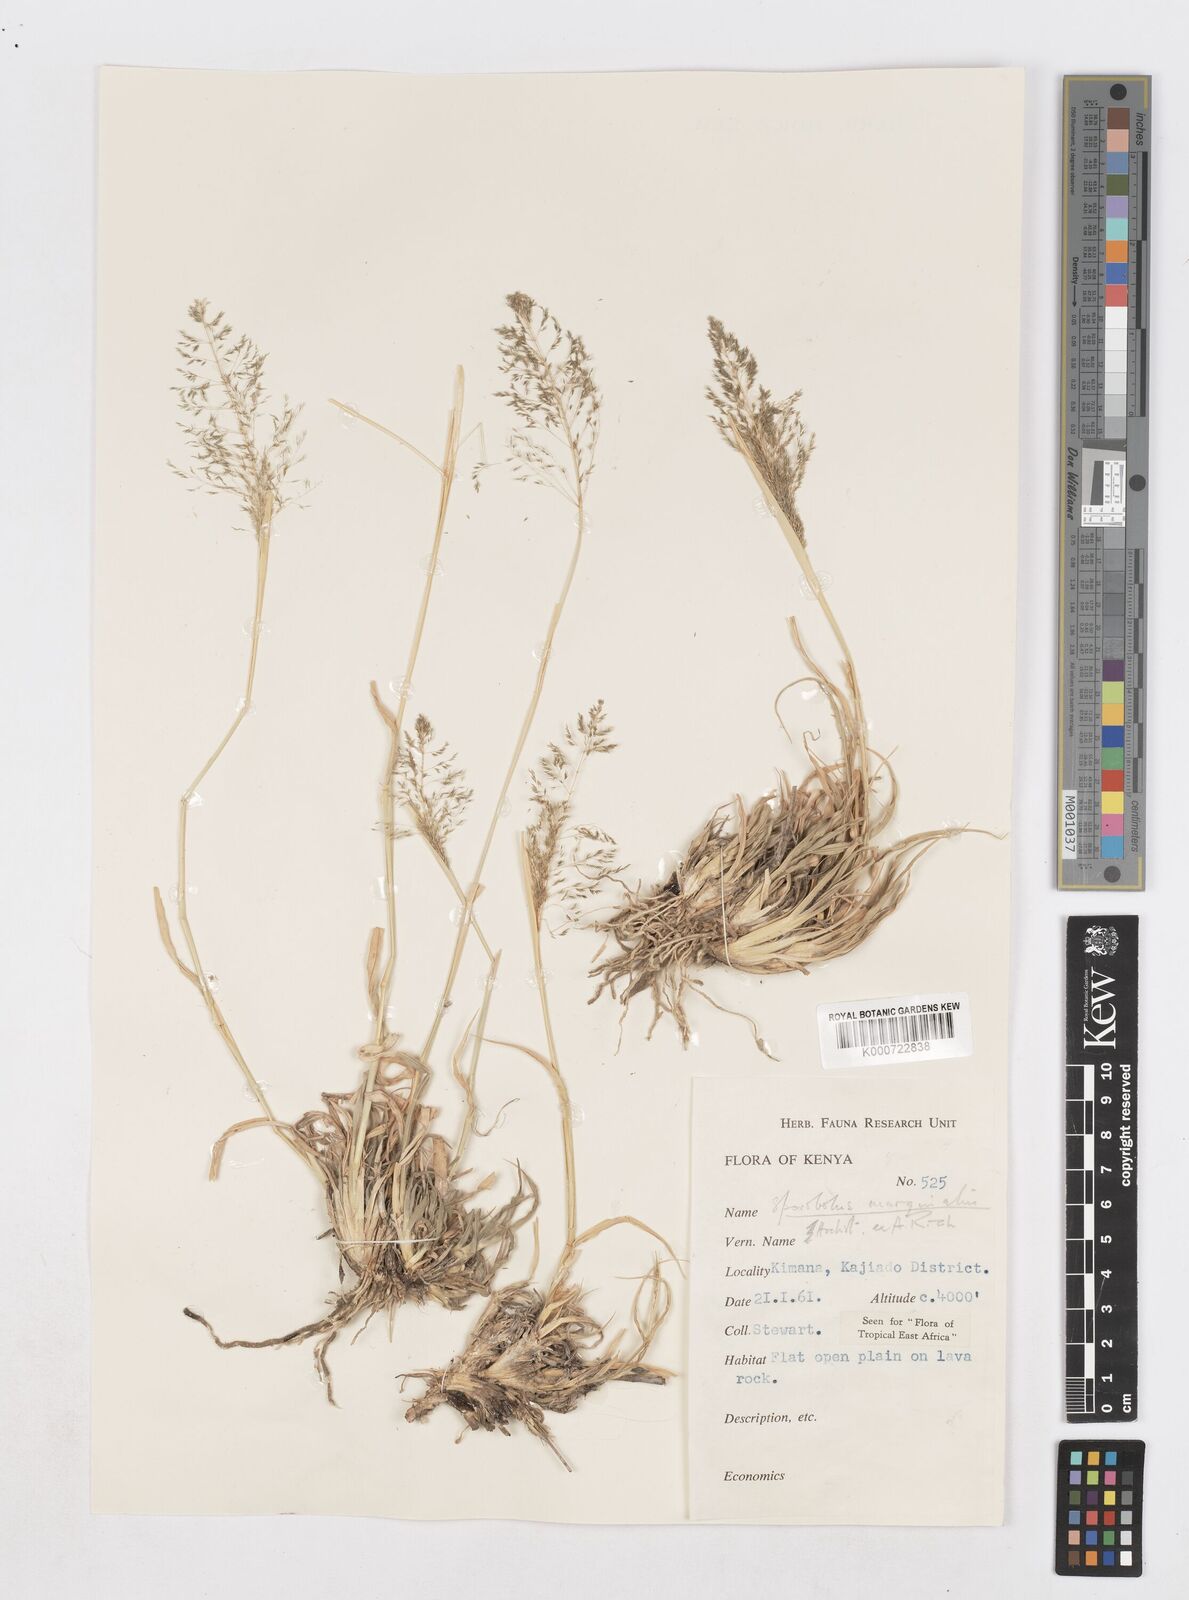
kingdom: Plantae
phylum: Tracheophyta
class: Liliopsida
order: Poales
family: Poaceae
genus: Sporobolus
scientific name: Sporobolus ioclados
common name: Pan dropseed
